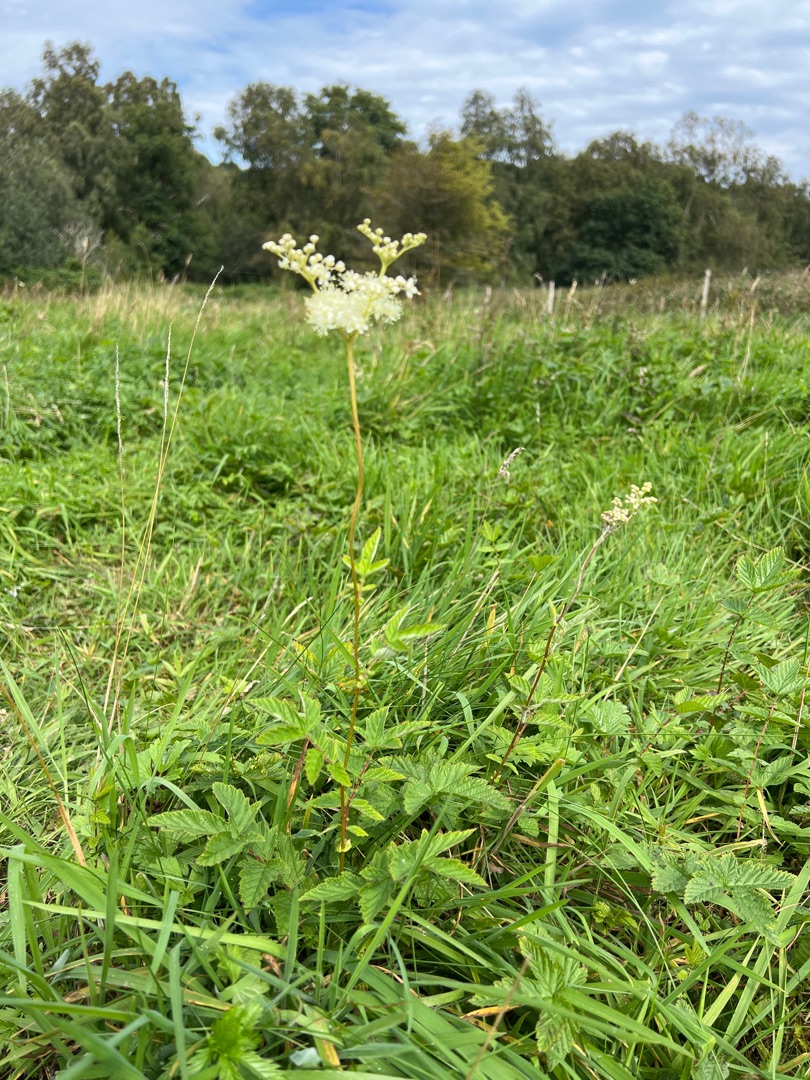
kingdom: Plantae
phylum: Tracheophyta
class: Magnoliopsida
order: Rosales
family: Rosaceae
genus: Filipendula
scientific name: Filipendula ulmaria
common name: Almindelig mjødurt
